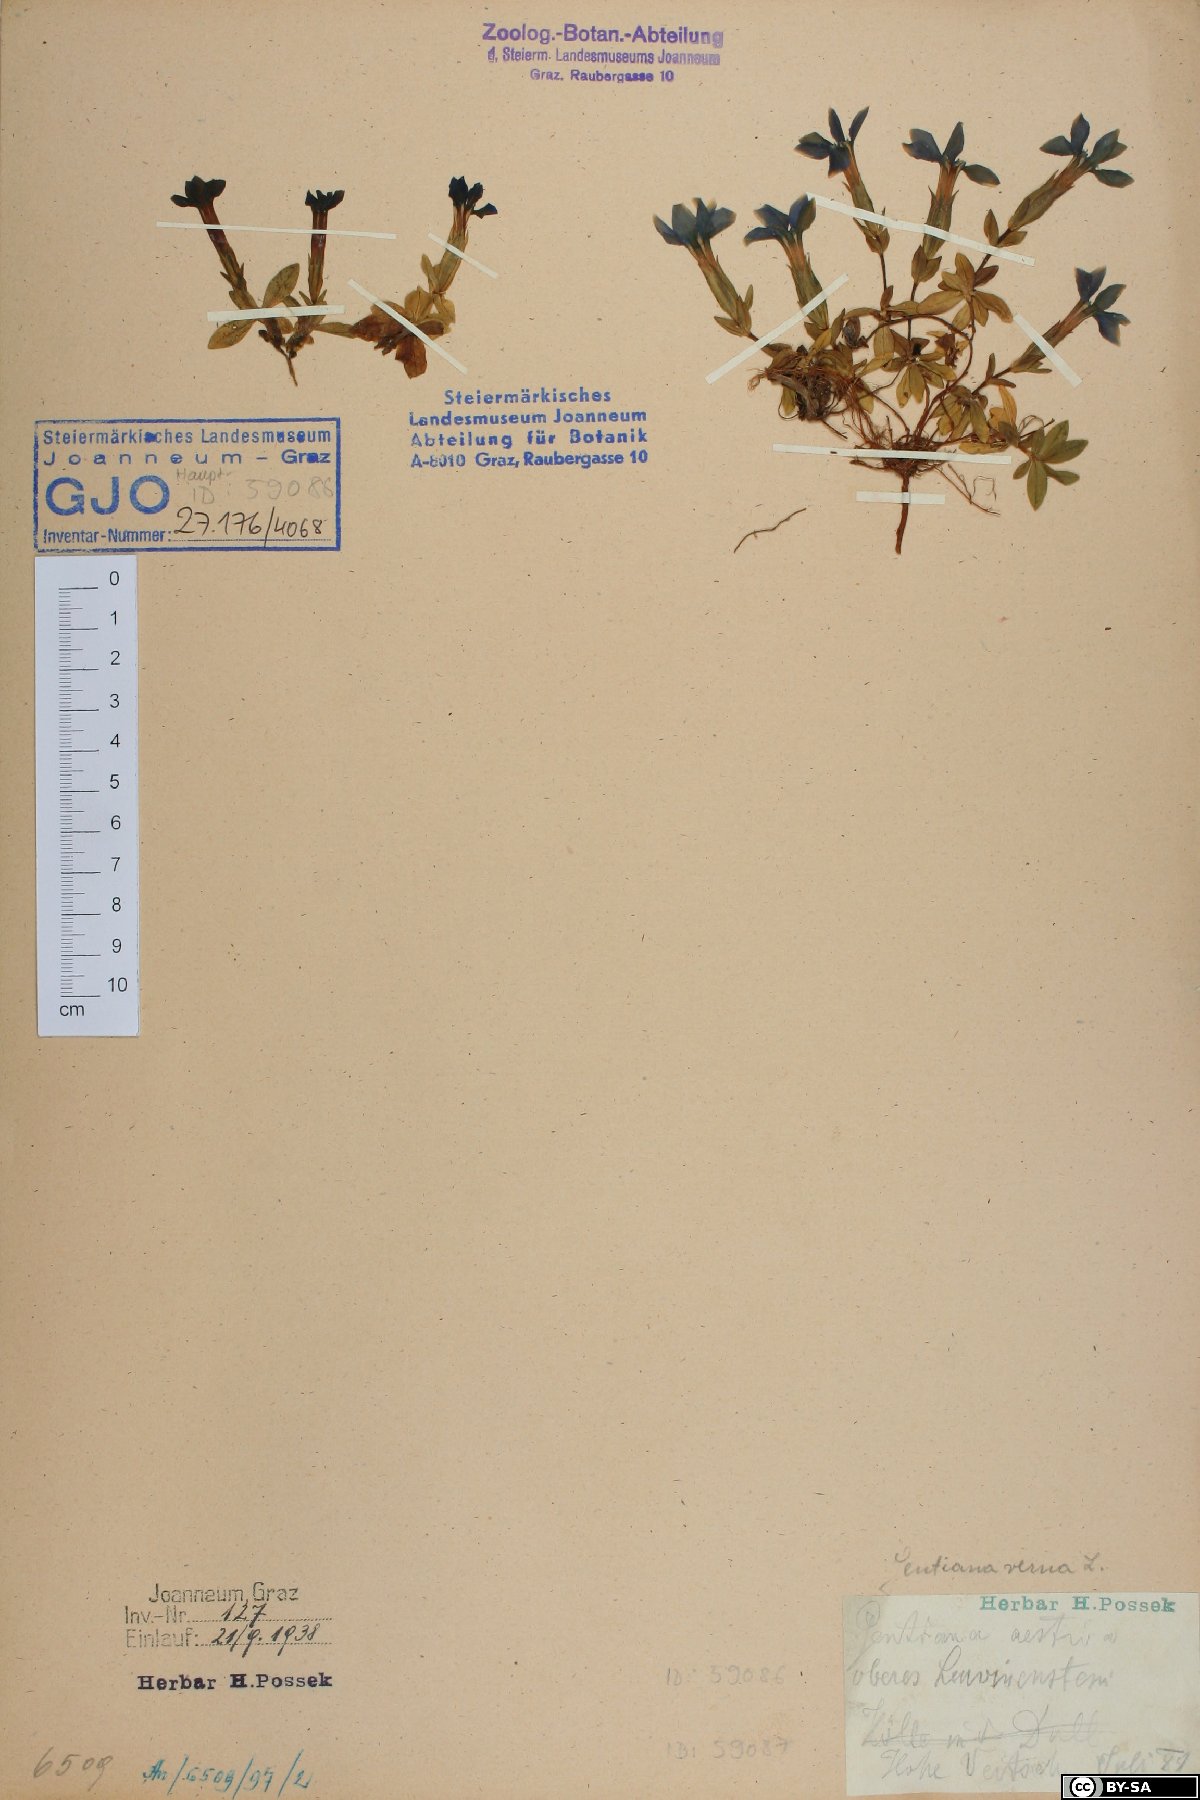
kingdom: Plantae
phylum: Tracheophyta
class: Magnoliopsida
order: Gentianales
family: Gentianaceae
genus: Gentiana
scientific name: Gentiana verna
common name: Spring gentian
